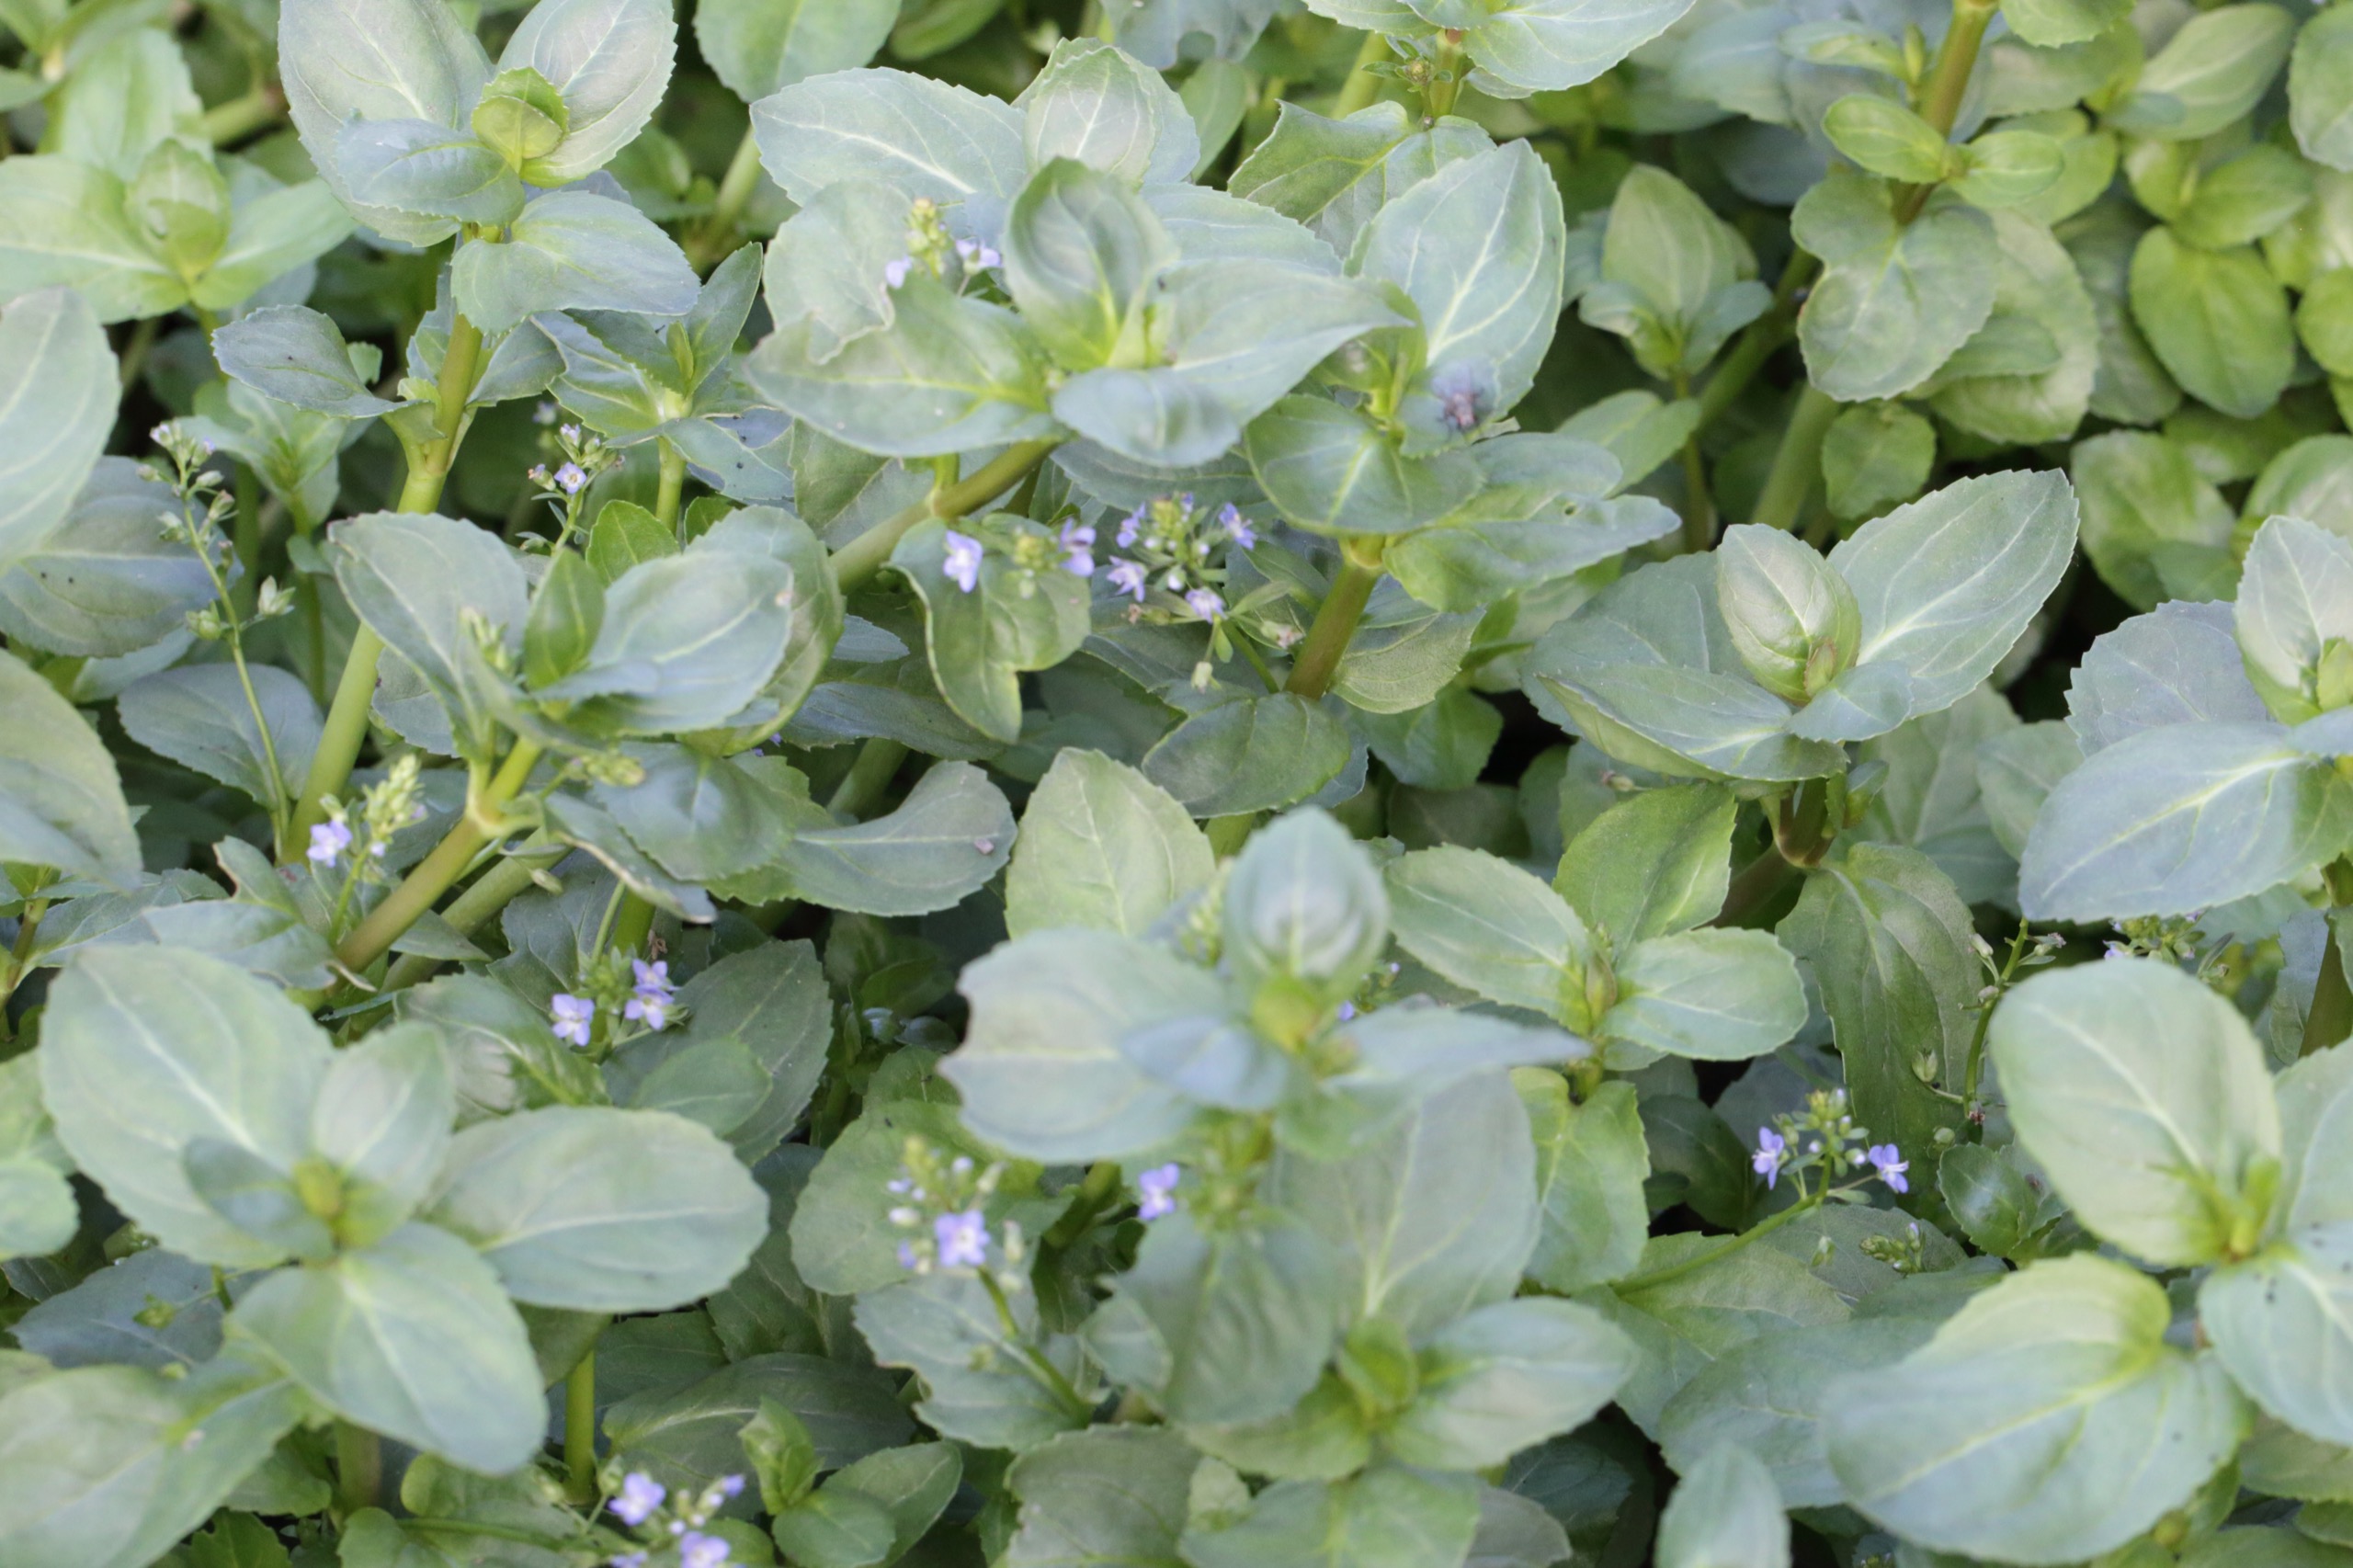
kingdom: Plantae
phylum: Tracheophyta
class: Magnoliopsida
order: Lamiales
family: Plantaginaceae
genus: Veronica
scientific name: Veronica beccabunga
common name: Tykbladet ærenpris
